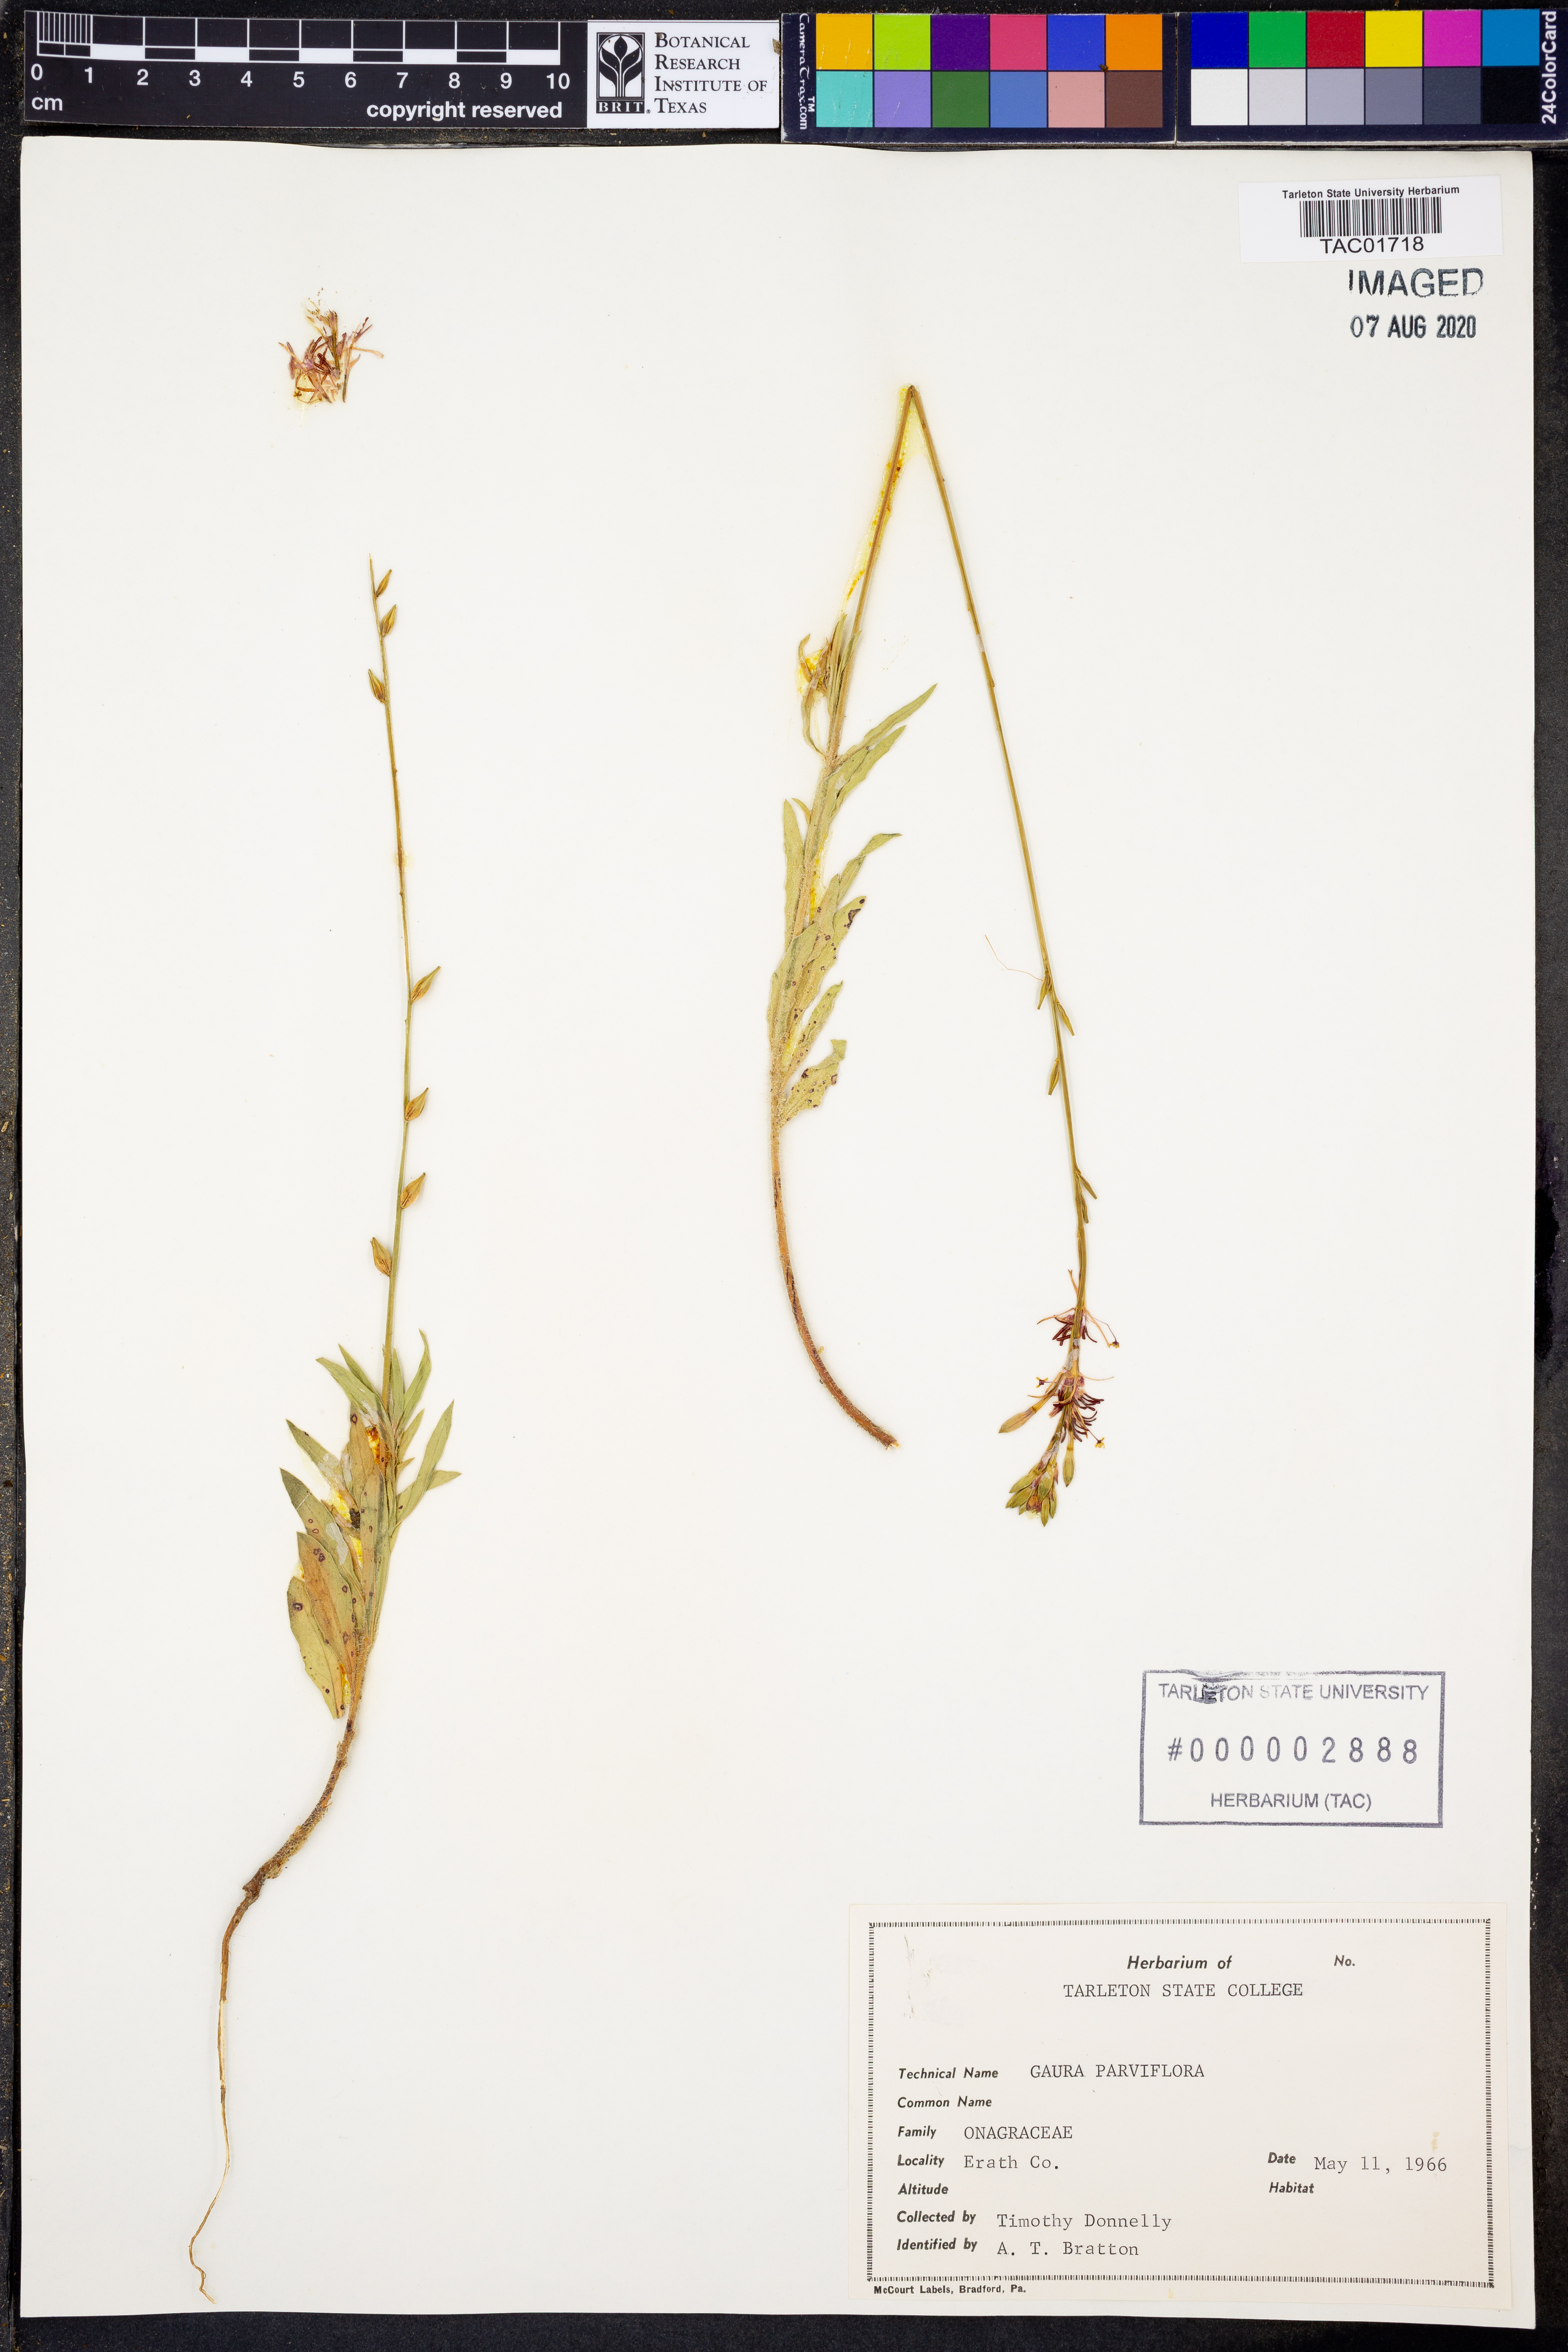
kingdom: Plantae
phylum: Tracheophyta
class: Magnoliopsida
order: Myrtales
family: Onagraceae
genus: Oenothera
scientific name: Oenothera curtiflora
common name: Velvetweed
